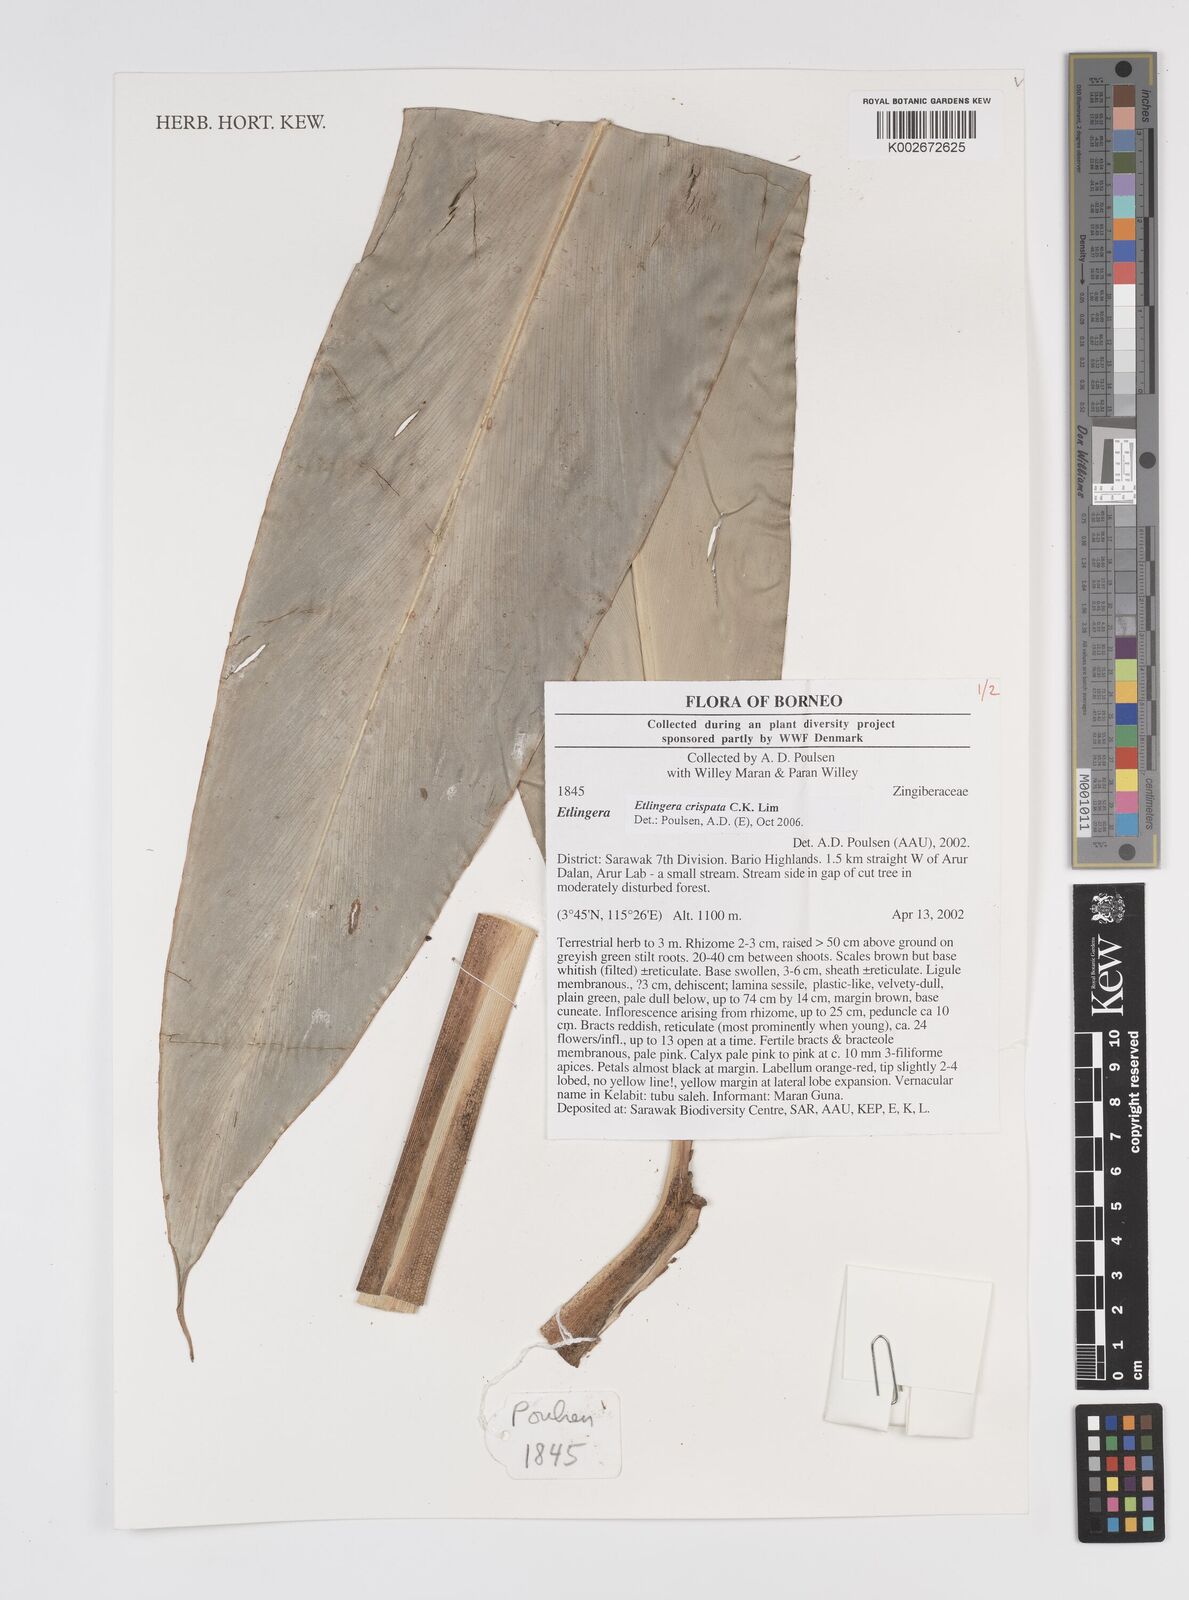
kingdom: Plantae
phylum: Tracheophyta
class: Liliopsida
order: Zingiberales
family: Zingiberaceae
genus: Etlingera
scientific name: Etlingera crispata
